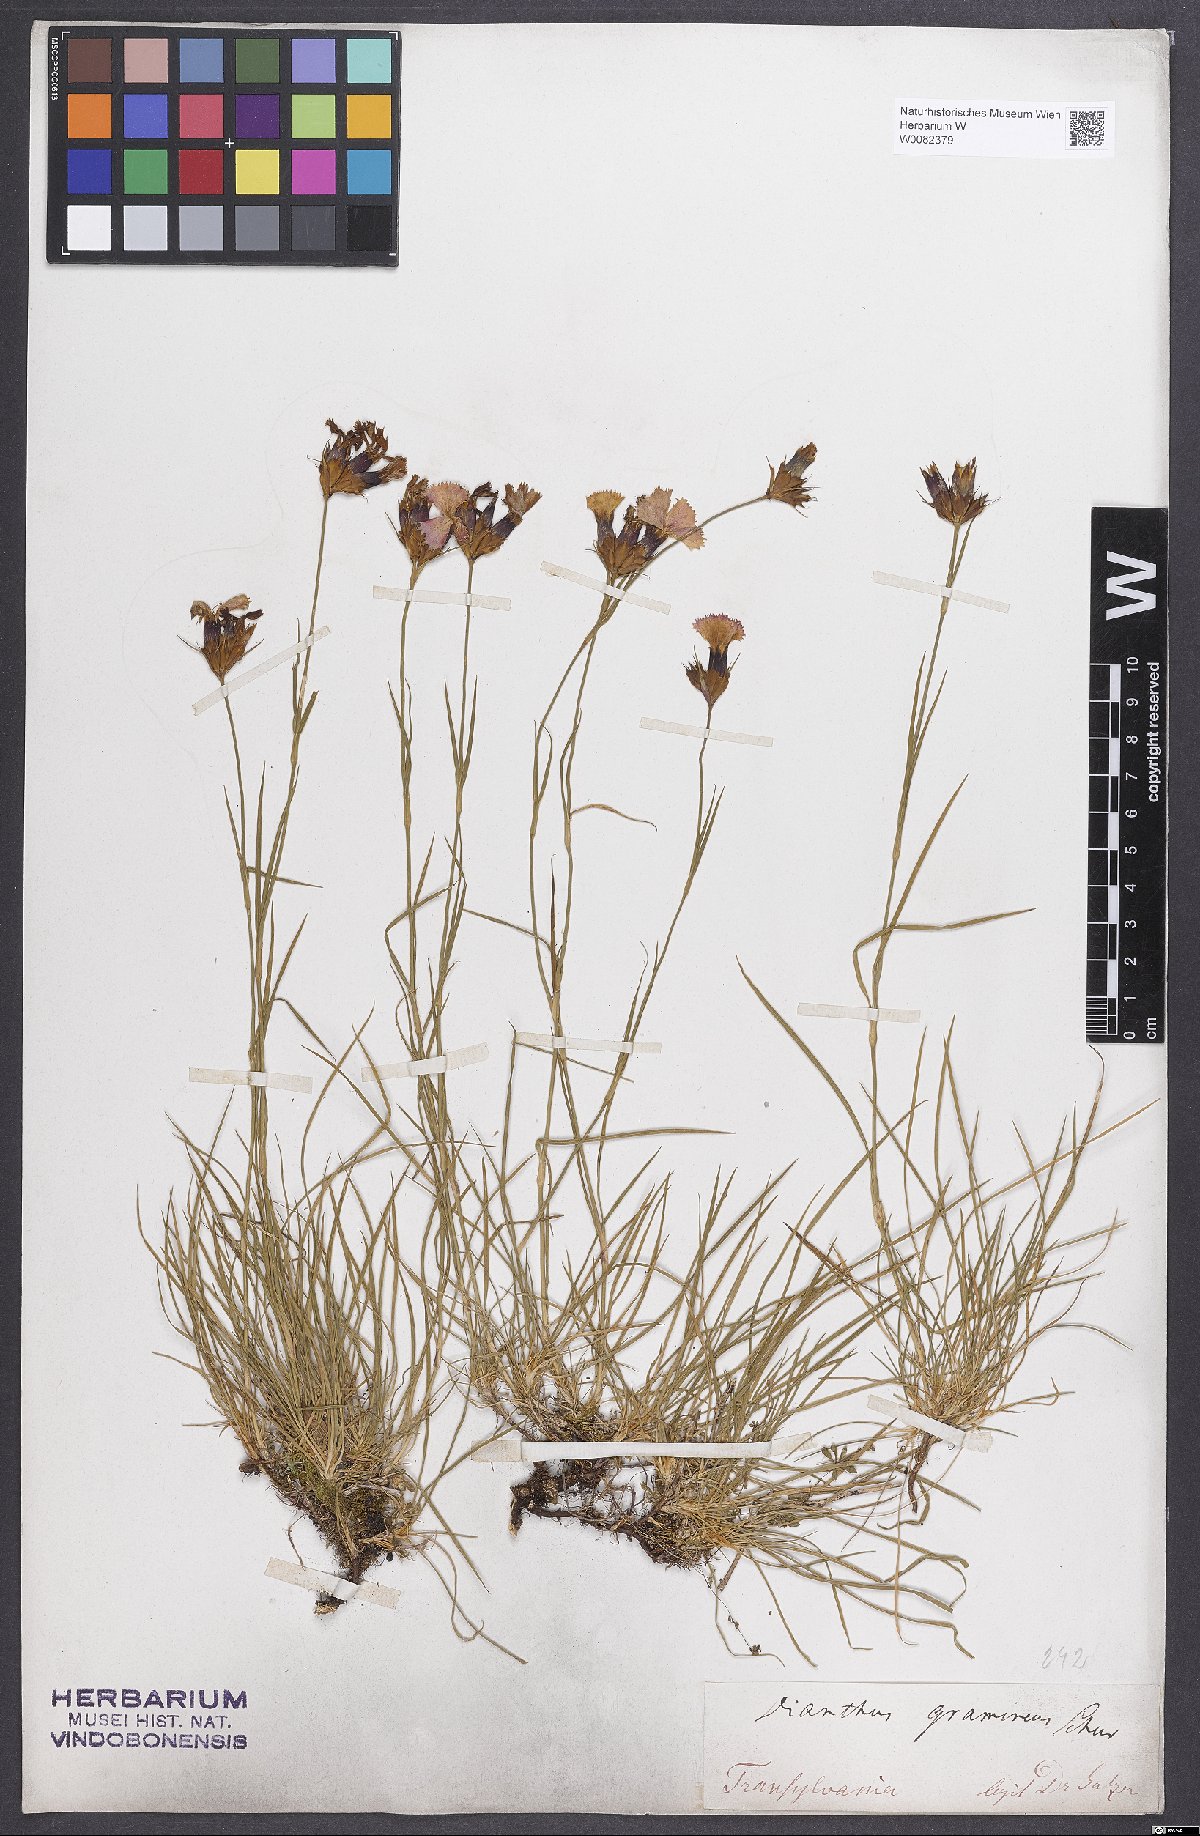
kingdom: Plantae
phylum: Tracheophyta
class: Magnoliopsida
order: Caryophyllales
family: Caryophyllaceae
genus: Dianthus
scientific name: Dianthus carthusianorum
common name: Carthusian pink
